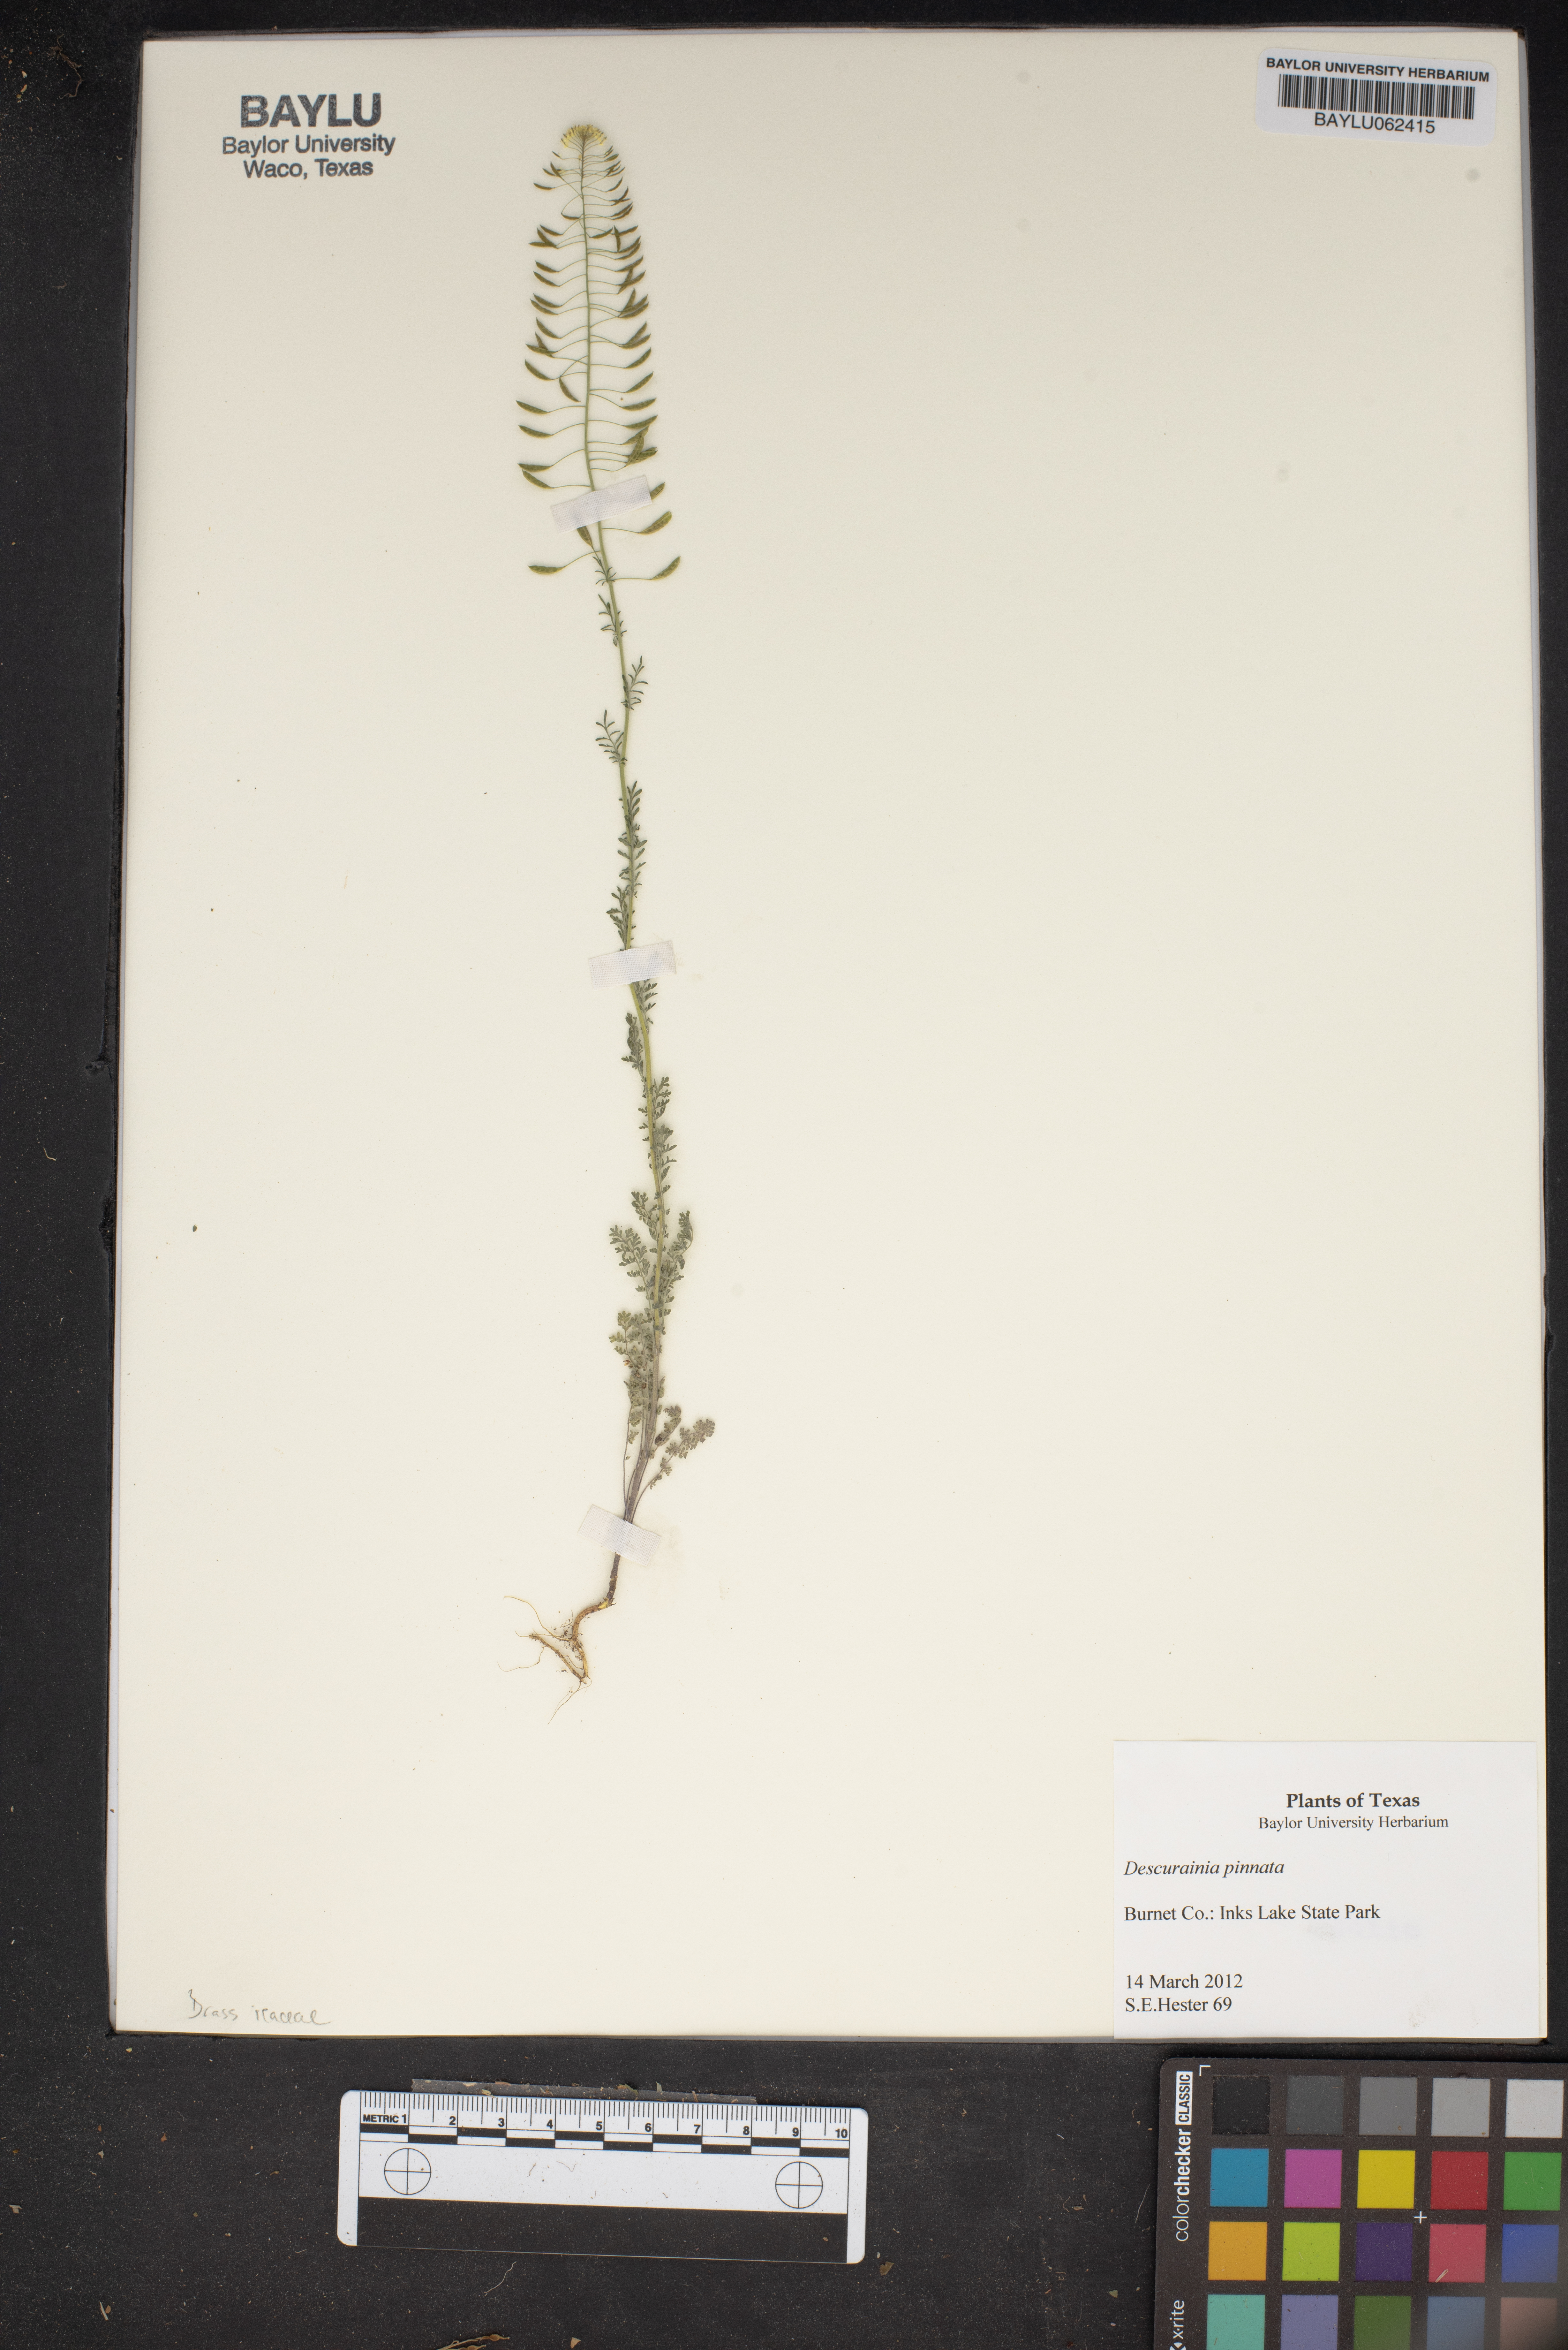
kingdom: Plantae
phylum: Tracheophyta
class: Magnoliopsida
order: Brassicales
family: Brassicaceae
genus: Descurainia
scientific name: Descurainia pinnata
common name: Western tansy mustard
